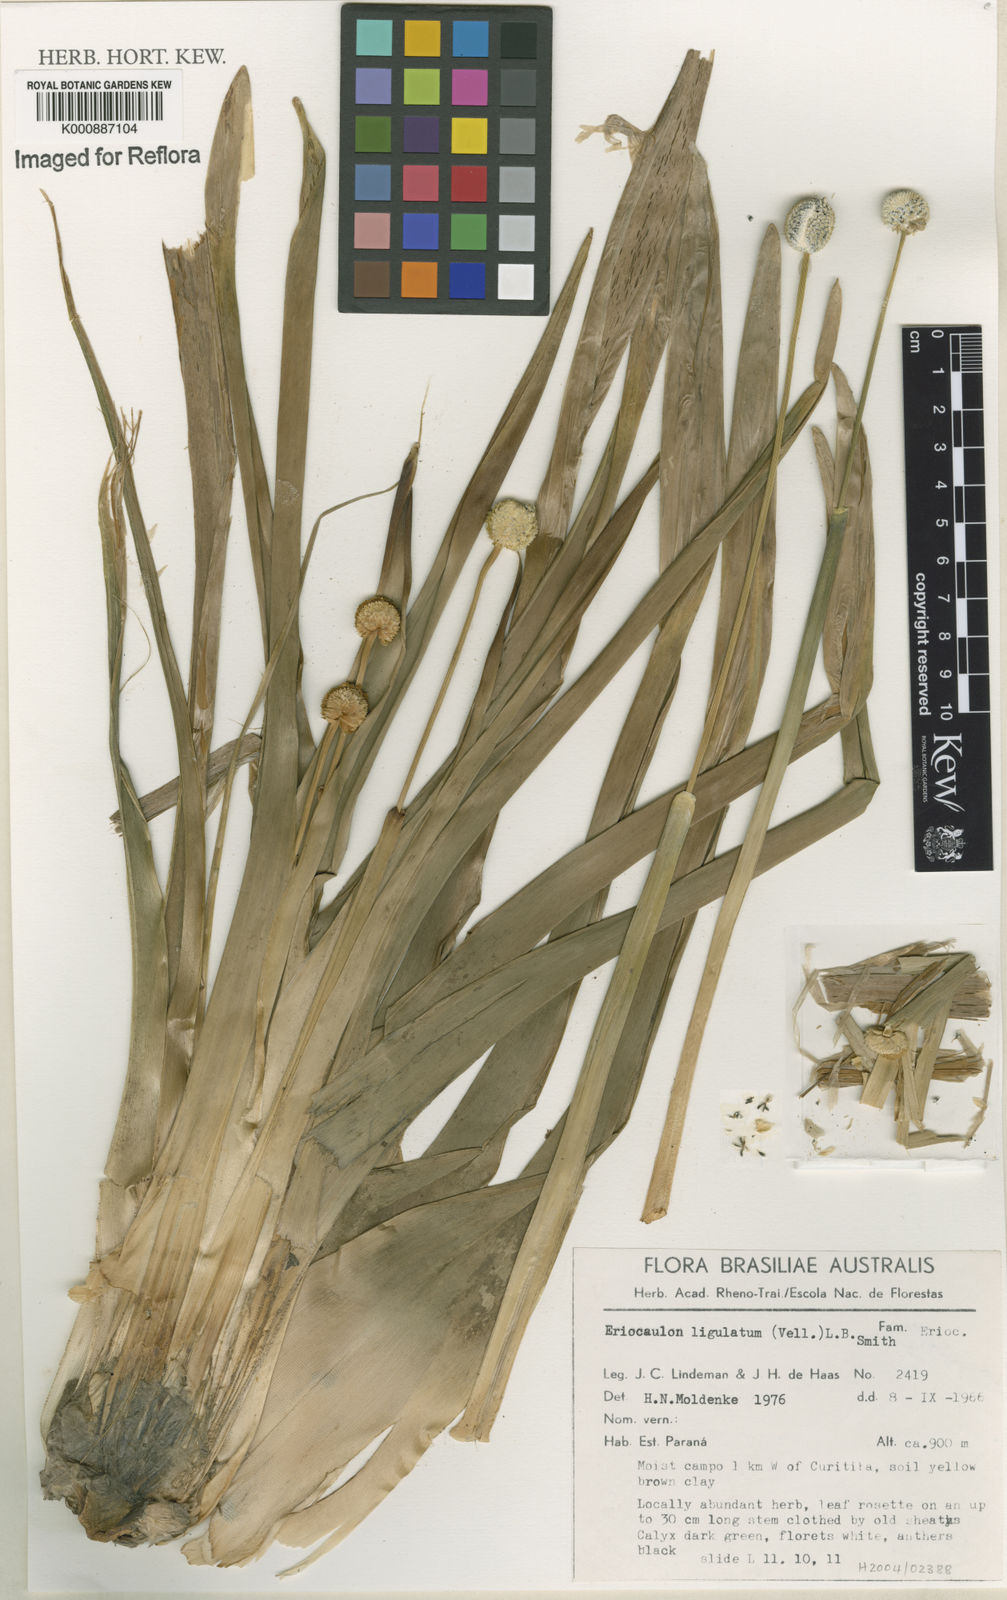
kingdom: Plantae
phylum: Tracheophyta
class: Liliopsida
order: Poales
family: Eriocaulaceae
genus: Eriocaulon
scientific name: Eriocaulon
